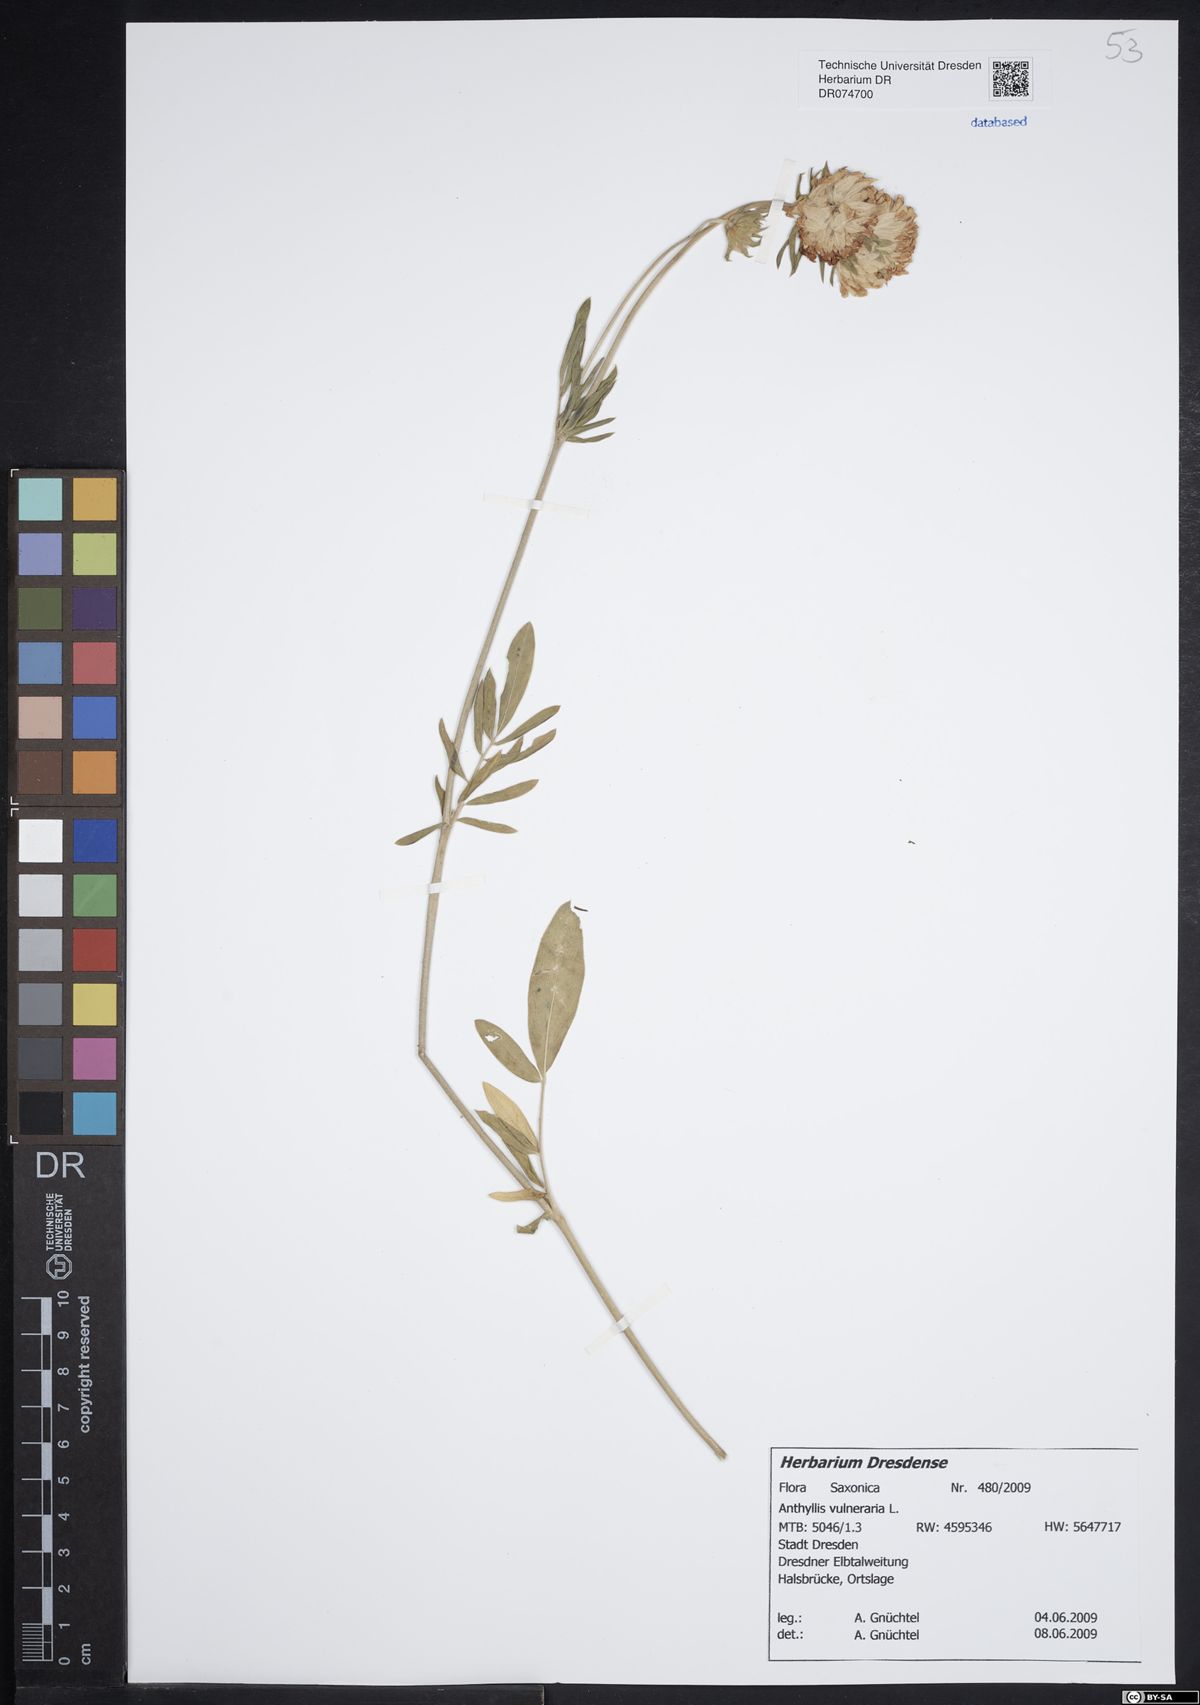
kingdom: Plantae
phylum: Tracheophyta
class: Magnoliopsida
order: Fabales
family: Fabaceae
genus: Anthyllis
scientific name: Anthyllis vulneraria
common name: Kidney vetch
